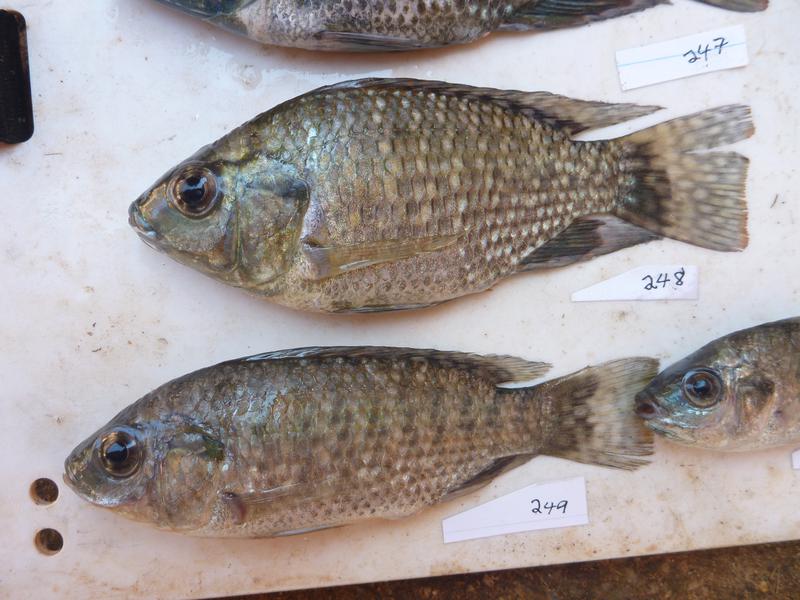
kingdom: Animalia
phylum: Chordata
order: Perciformes
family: Cichlidae
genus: Oreochromis
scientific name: Oreochromis leucostictus
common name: Blue spotted tilapia
